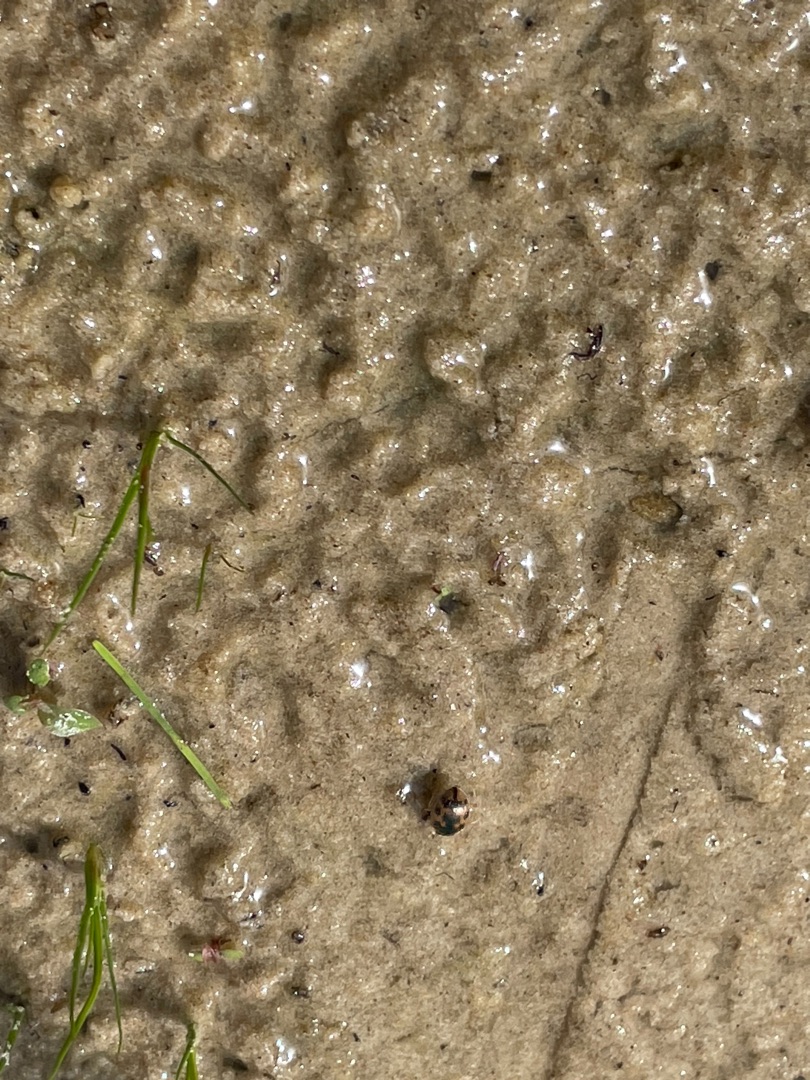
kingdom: Animalia
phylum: Arthropoda
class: Insecta
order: Coleoptera
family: Carabidae
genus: Omophron
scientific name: Omophron limbatum
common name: Kugleløber
